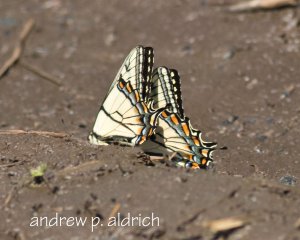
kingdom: Animalia
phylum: Arthropoda
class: Insecta
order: Lepidoptera
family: Papilionidae
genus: Pterourus
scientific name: Pterourus canadensis
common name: Canadian Tiger Swallowtail
